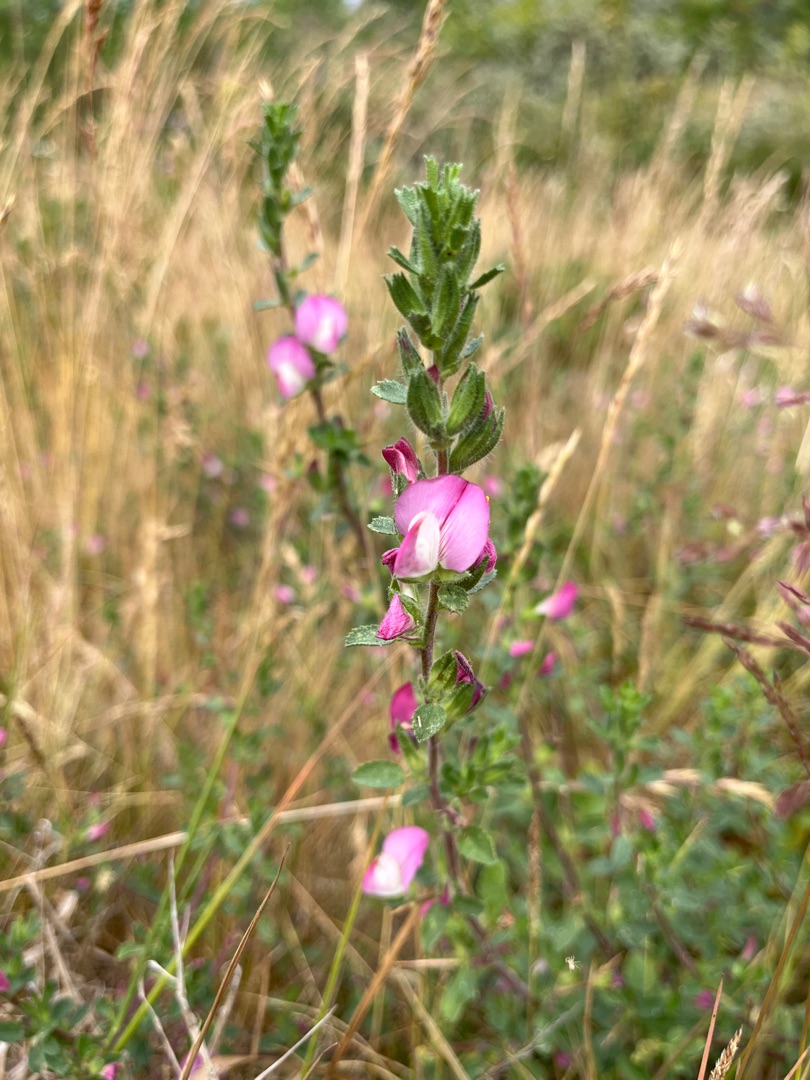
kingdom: Plantae
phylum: Tracheophyta
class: Magnoliopsida
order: Fabales
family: Fabaceae
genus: Ononis
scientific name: Ononis spinosa
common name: Mark-krageklo
